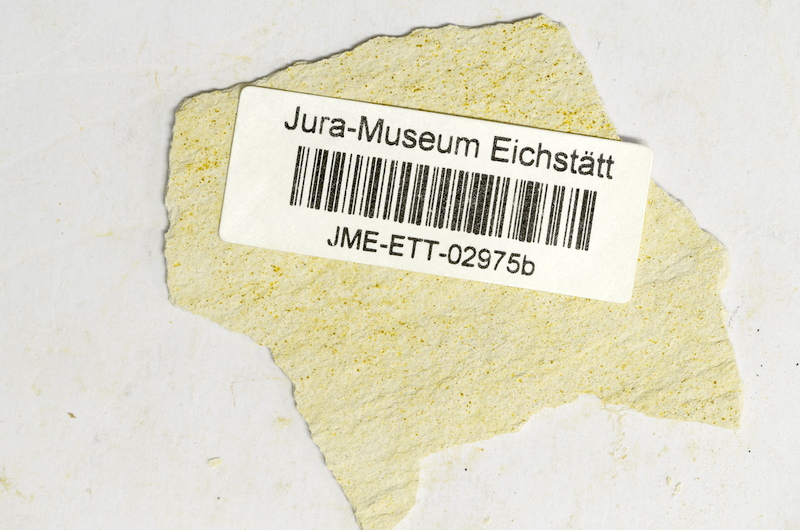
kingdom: Animalia
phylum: Chordata
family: Ascalaboidae
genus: Ebertichthys
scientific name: Ebertichthys ettlingensis
